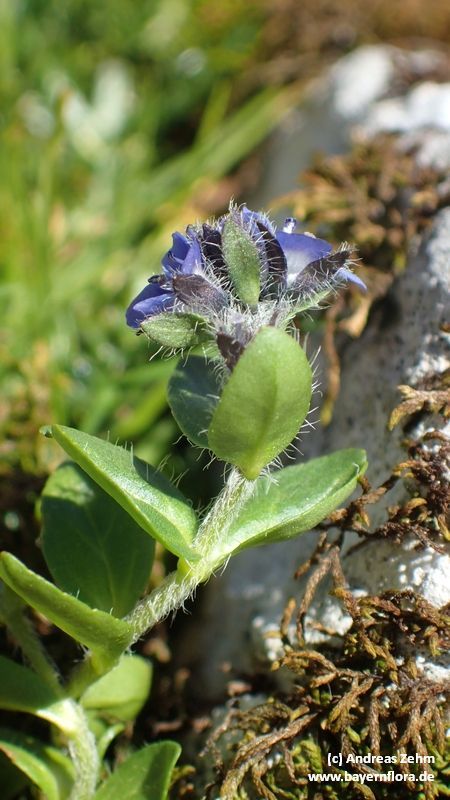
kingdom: Plantae
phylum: Tracheophyta
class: Magnoliopsida
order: Lamiales
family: Plantaginaceae
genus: Veronica
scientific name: Veronica alpina
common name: Alpine speedwell
